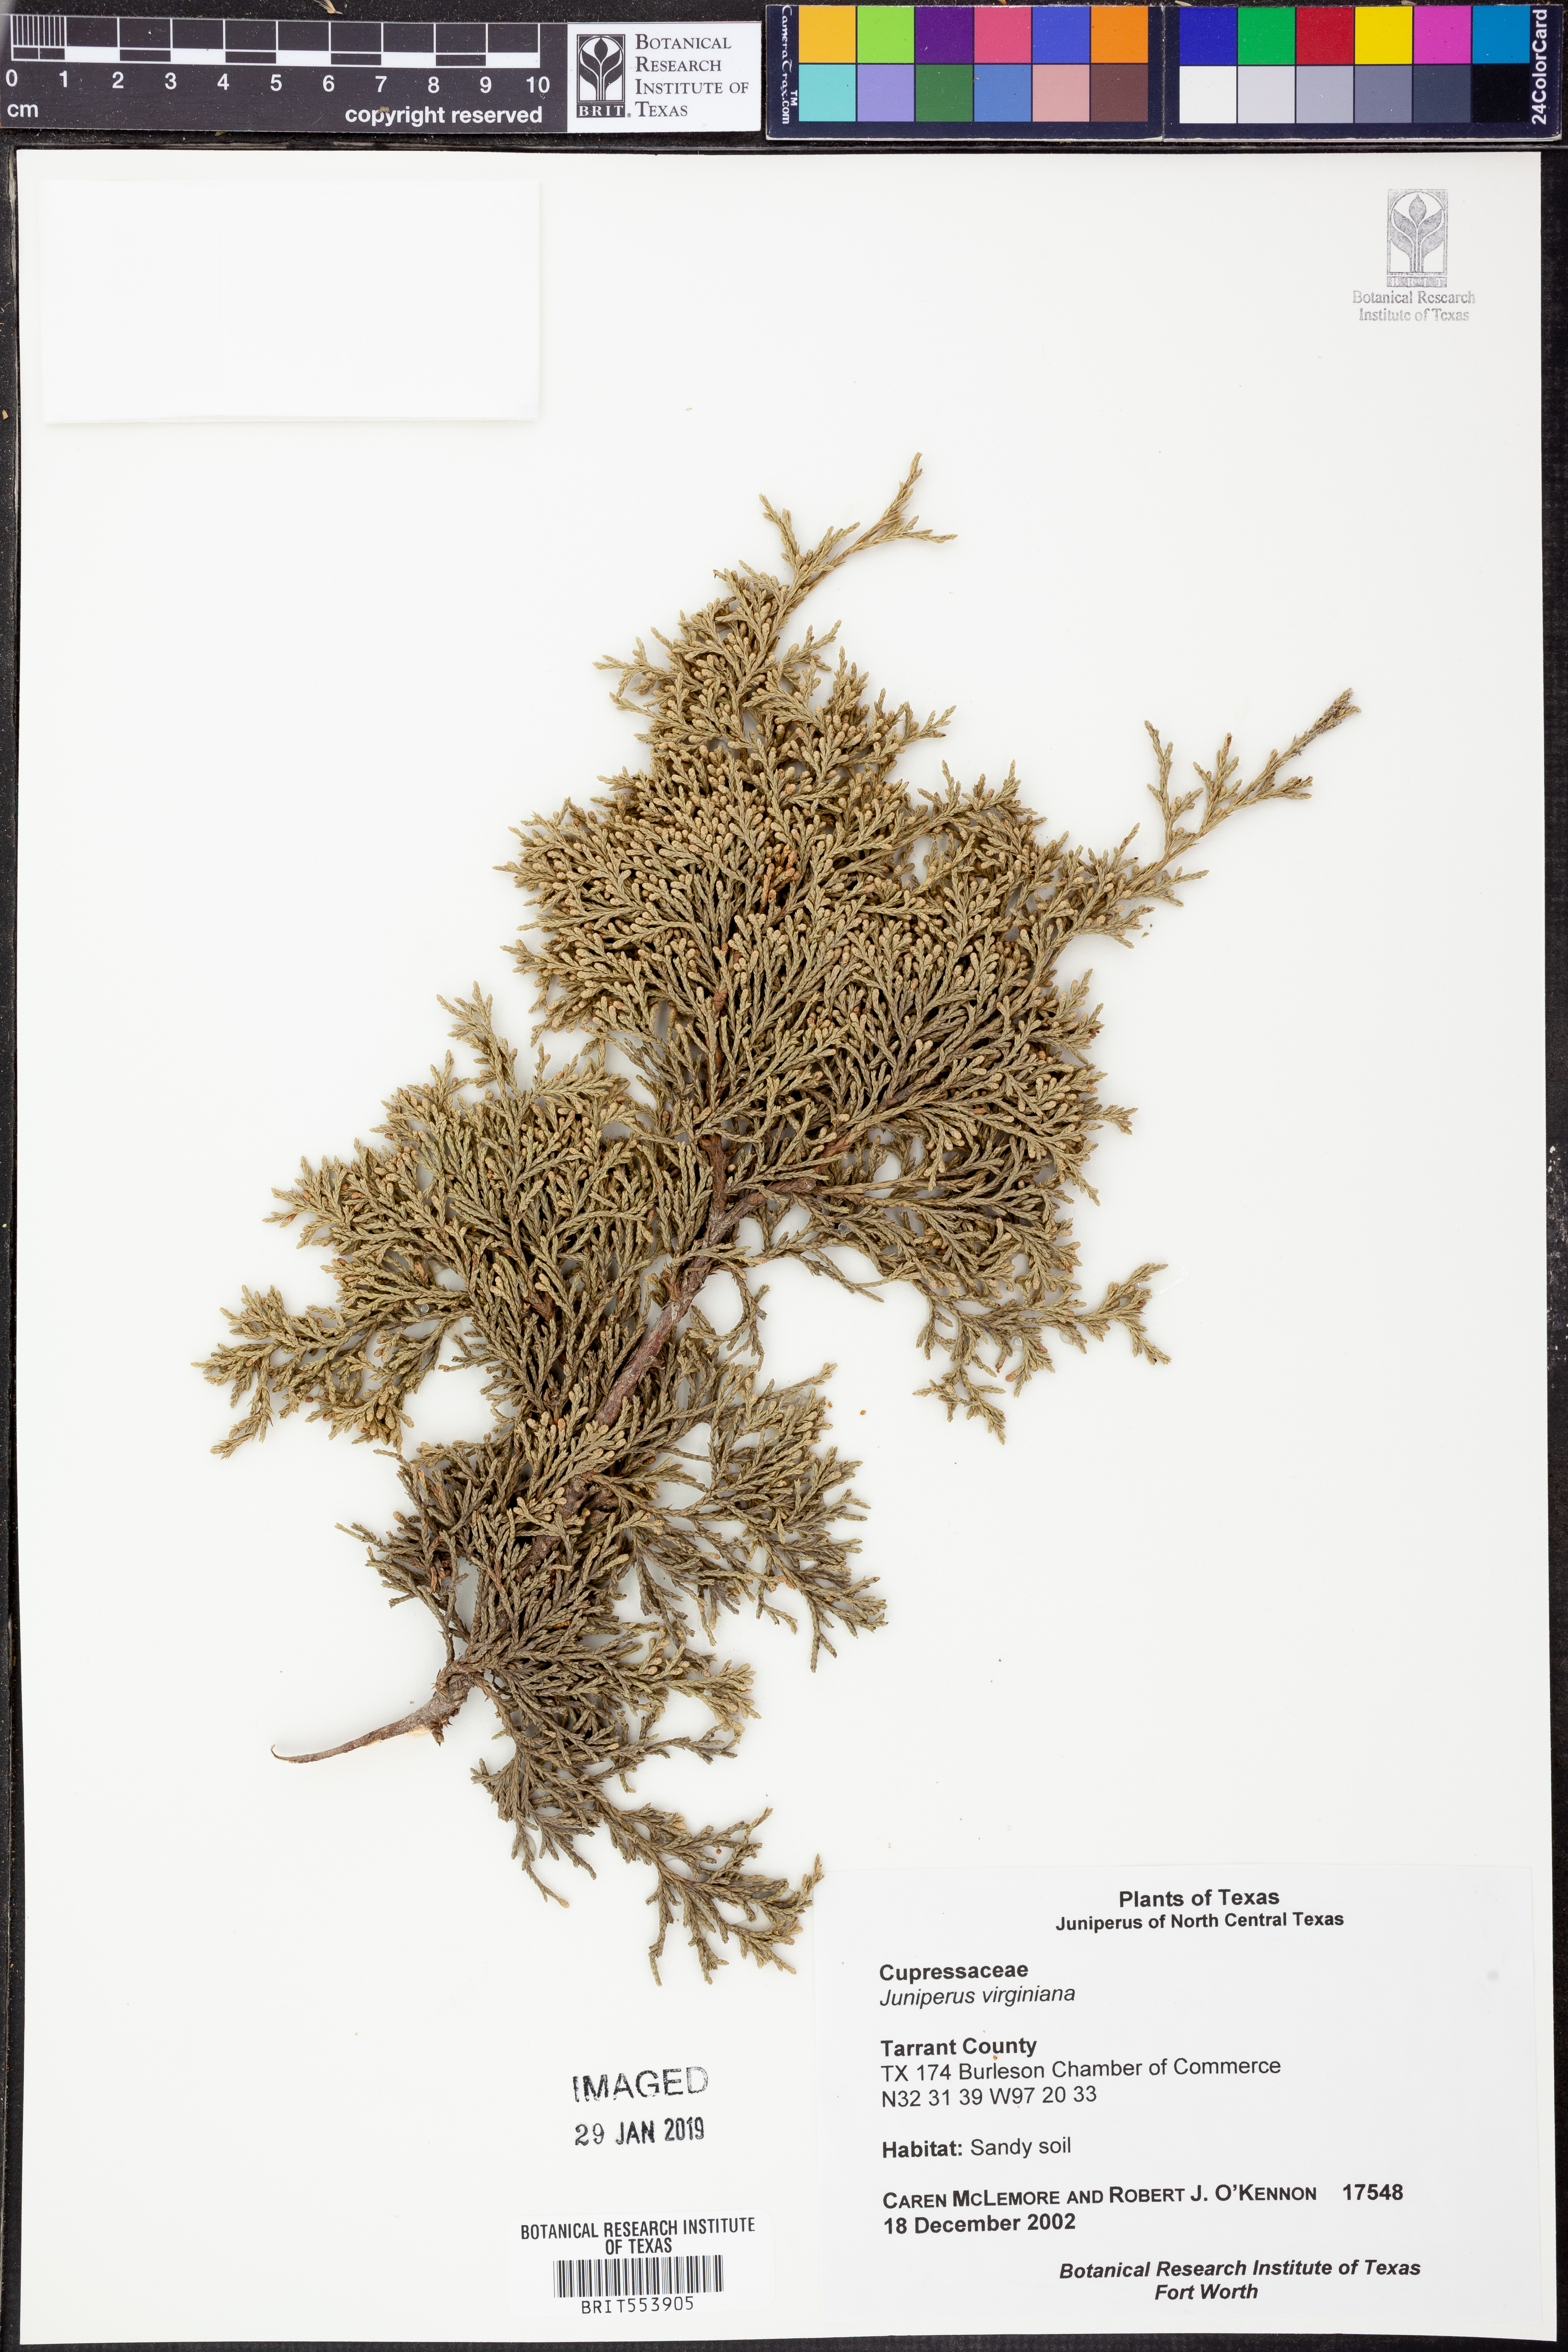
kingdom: Plantae
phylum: Tracheophyta
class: Pinopsida
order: Pinales
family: Cupressaceae
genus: Juniperus
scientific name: Juniperus virginiana
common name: Red juniper
